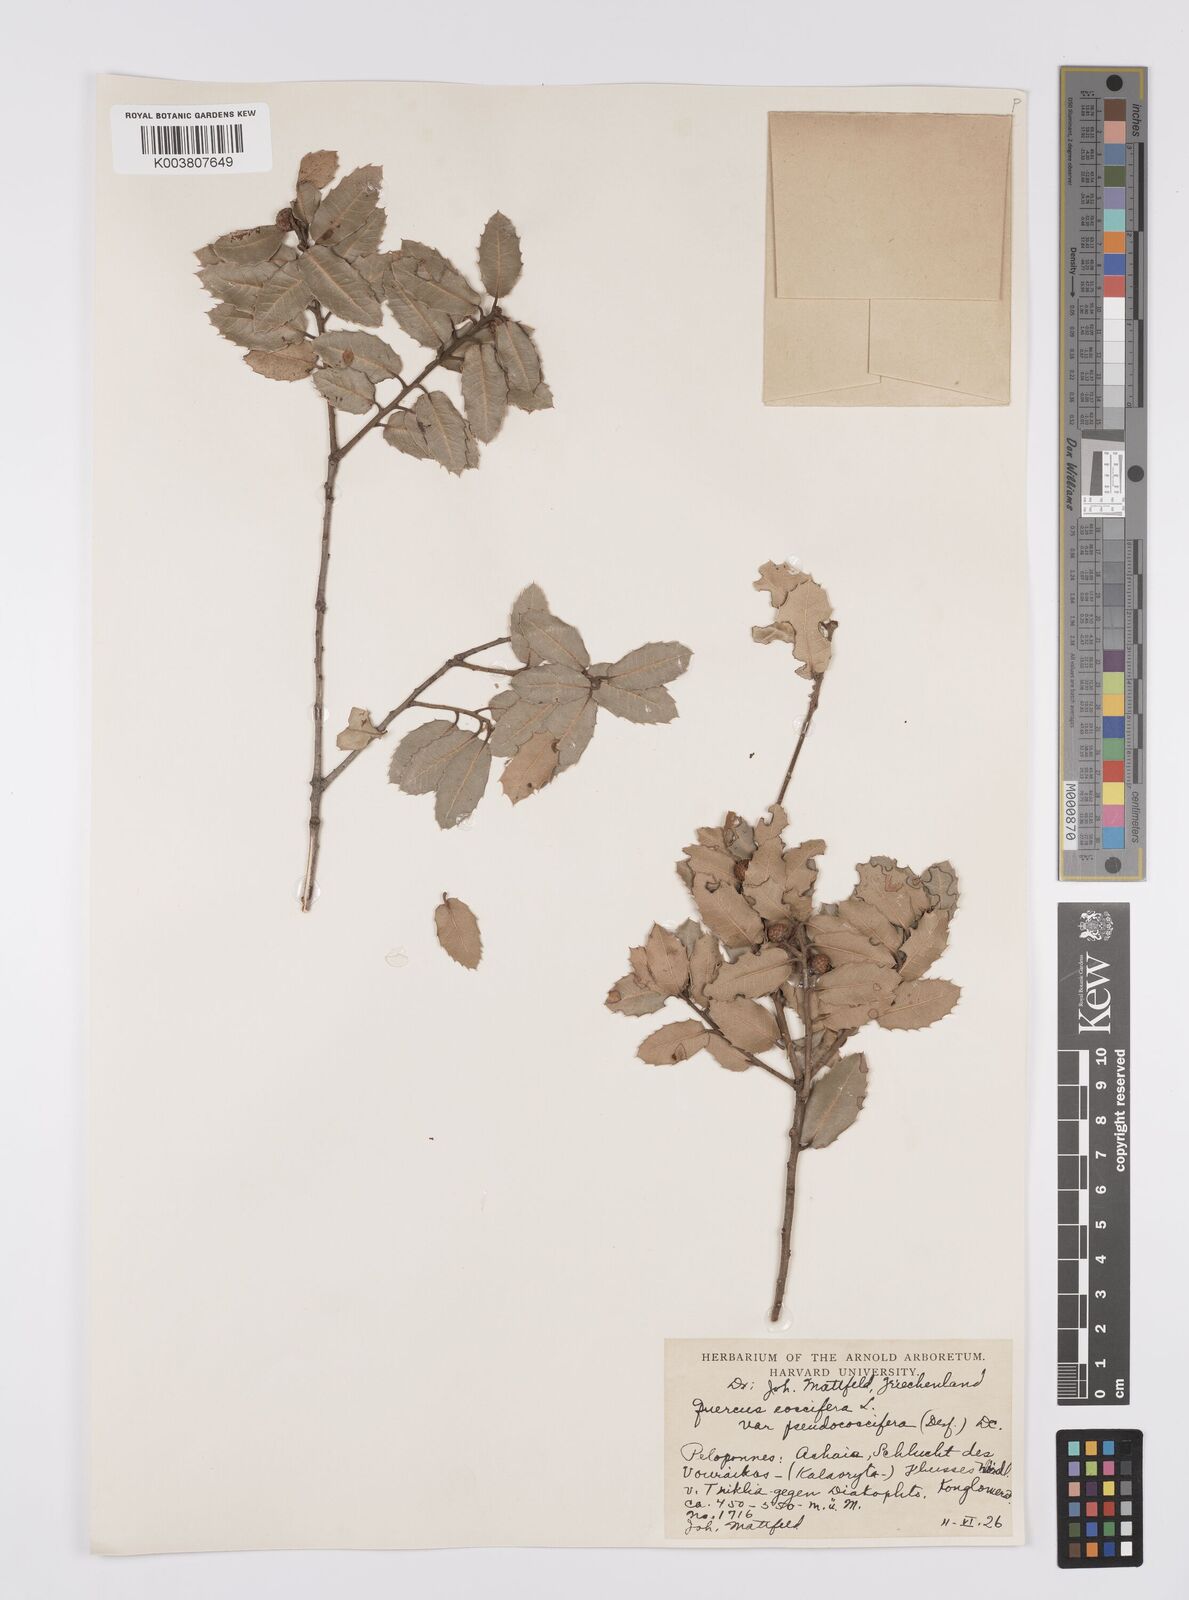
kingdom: Plantae
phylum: Tracheophyta
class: Magnoliopsida
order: Fagales
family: Fagaceae
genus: Quercus
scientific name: Quercus coccifera
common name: Kermes oak
